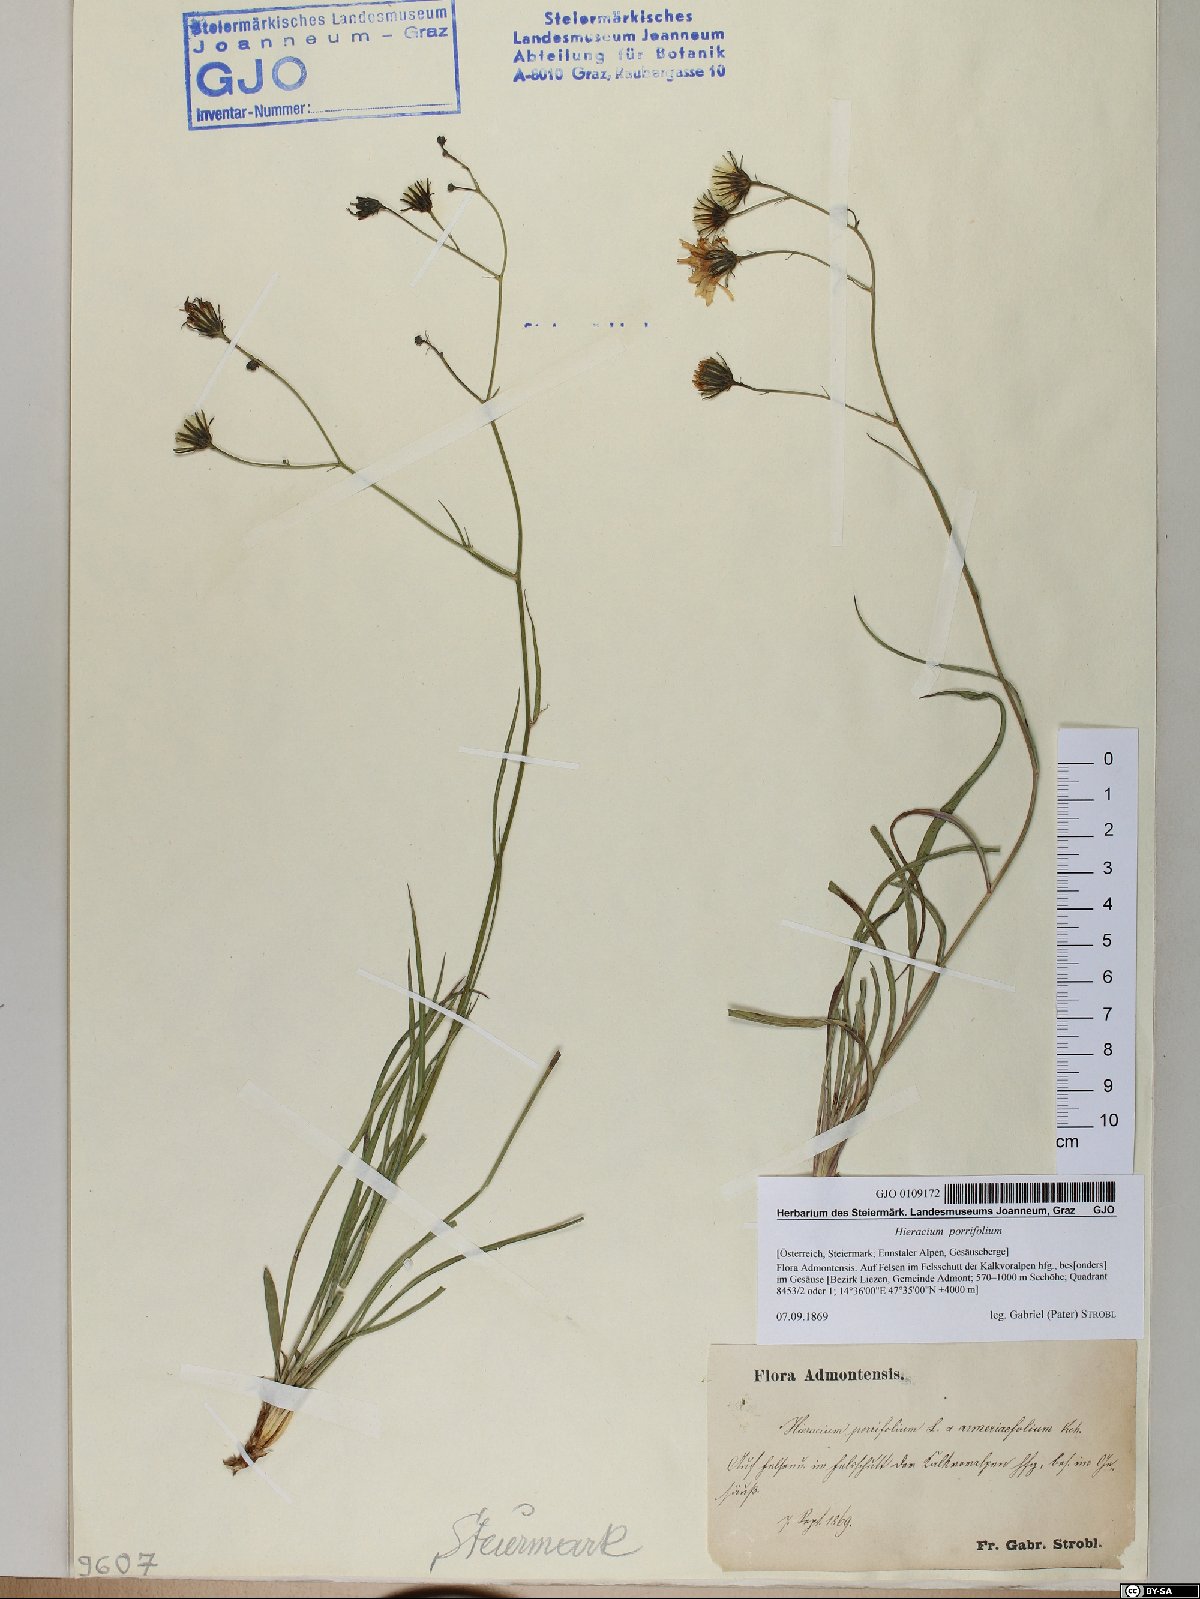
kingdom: Plantae
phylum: Tracheophyta
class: Magnoliopsida
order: Asterales
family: Asteraceae
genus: Hieracium
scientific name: Hieracium porrifolium
